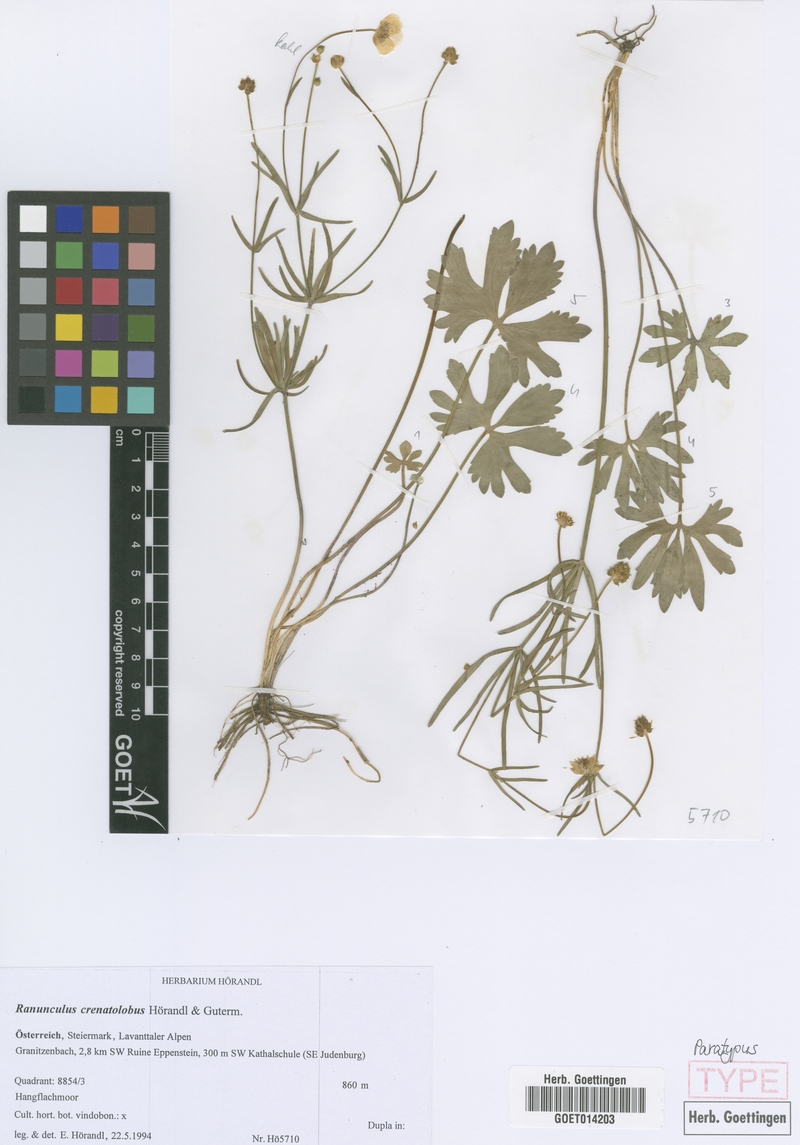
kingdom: Plantae
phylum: Tracheophyta
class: Magnoliopsida
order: Ranunculales
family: Ranunculaceae
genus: Ranunculus
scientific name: Ranunculus crenatolobus
